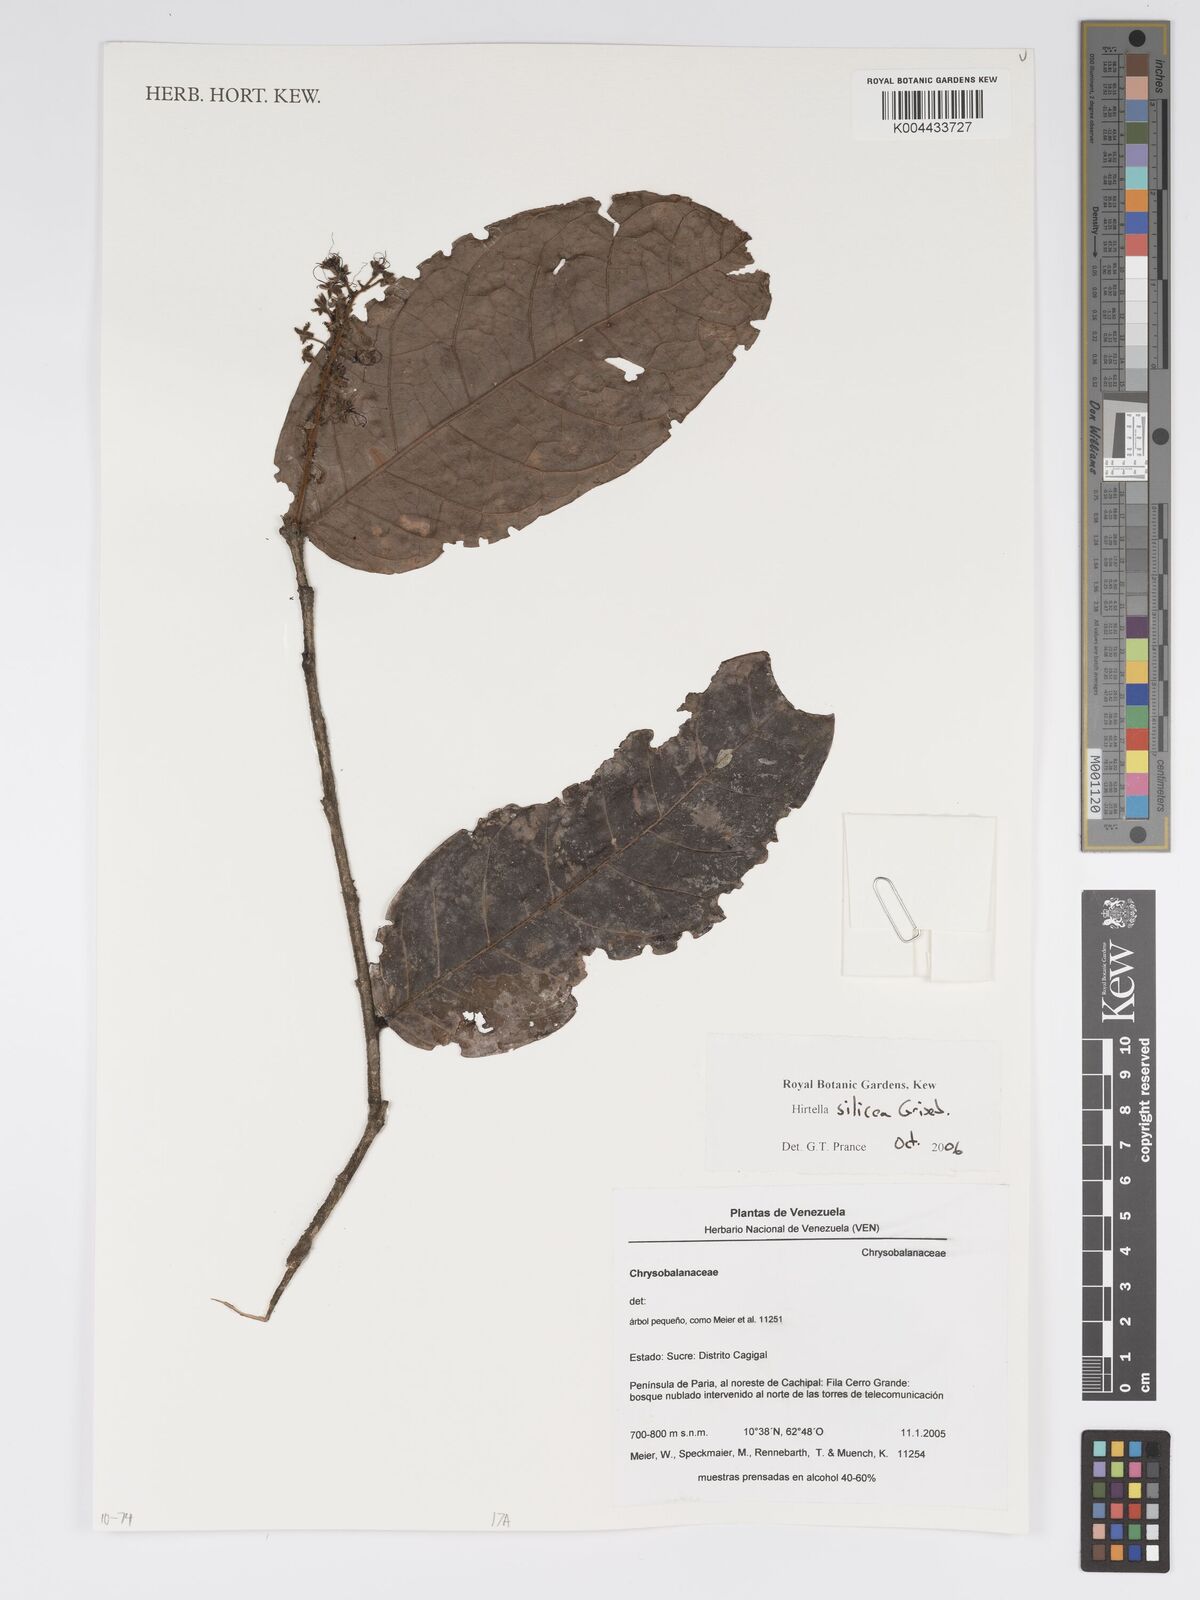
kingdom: Plantae
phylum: Tracheophyta
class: Magnoliopsida
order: Malpighiales
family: Chrysobalanaceae
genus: Hirtella
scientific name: Hirtella silicea
